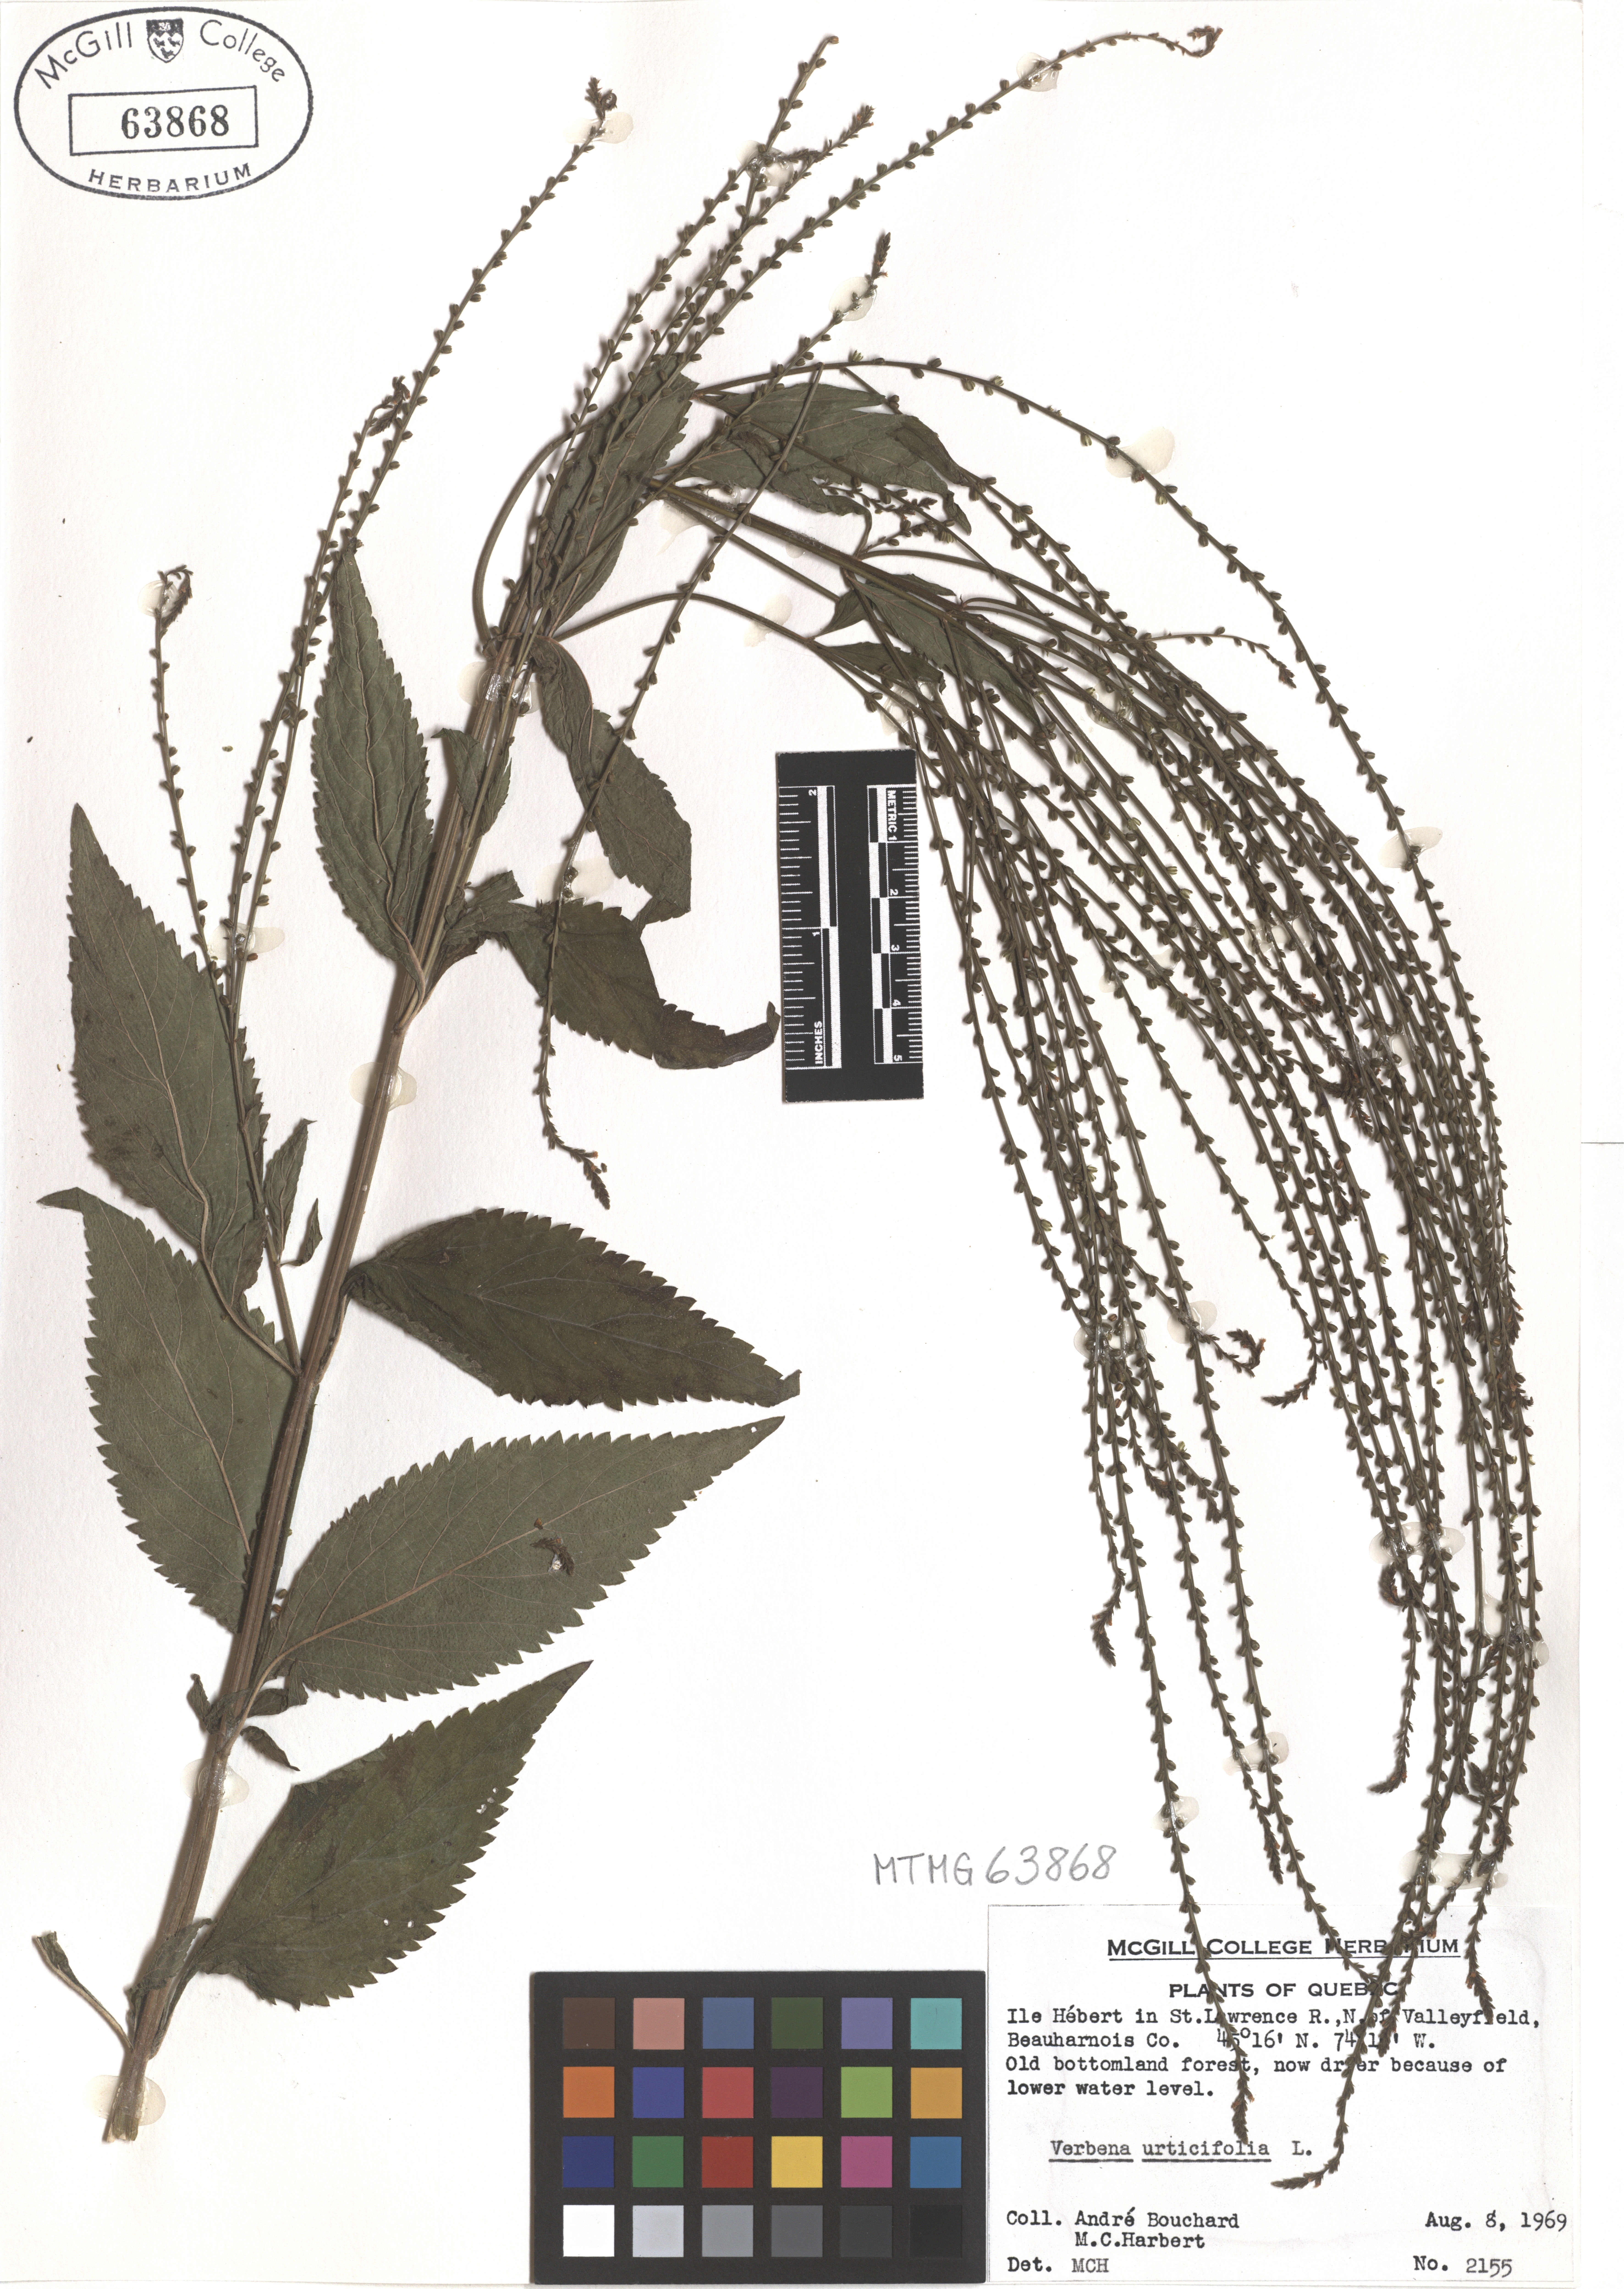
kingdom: Plantae
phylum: Tracheophyta
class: Magnoliopsida
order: Lamiales
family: Verbenaceae
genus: Verbena
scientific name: Verbena urticifolia
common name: Nettle-leaved vervain
